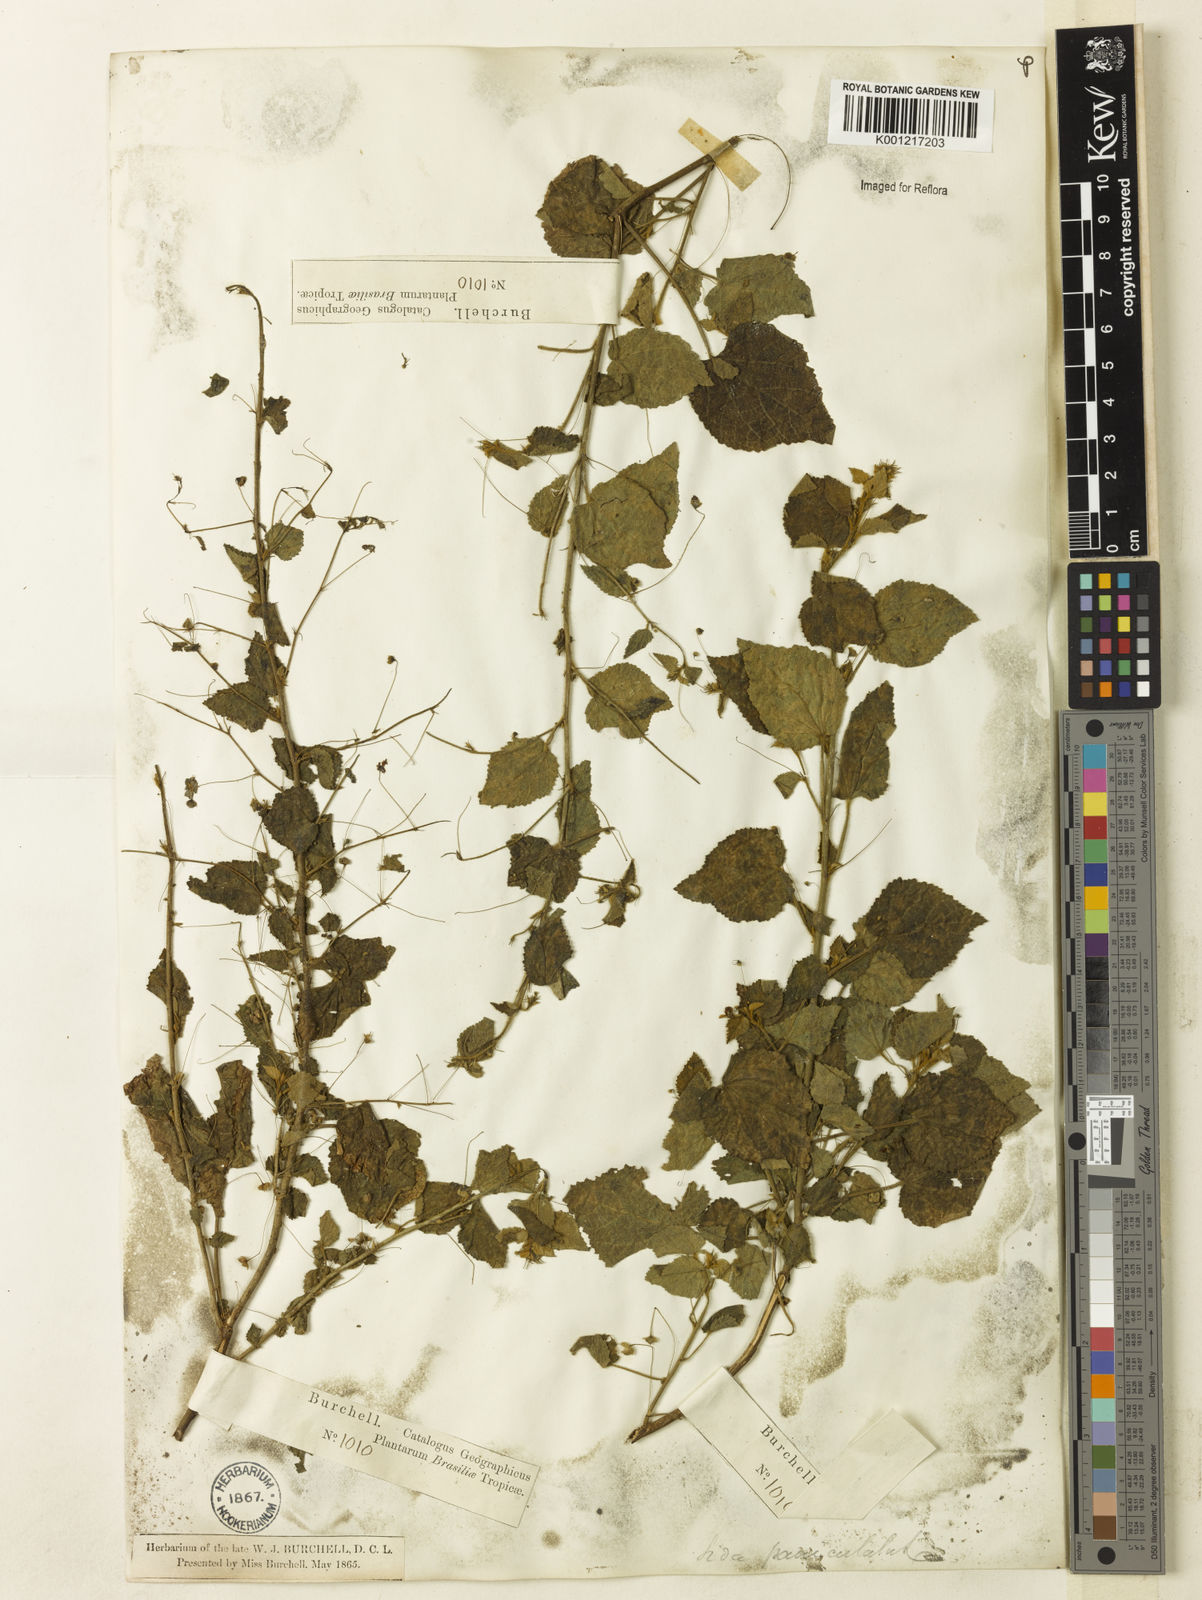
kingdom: Plantae
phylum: Tracheophyta
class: Magnoliopsida
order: Malvales
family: Malvaceae
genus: Sidastrum
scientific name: Sidastrum paniculatum
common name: Panicled sandmallow
